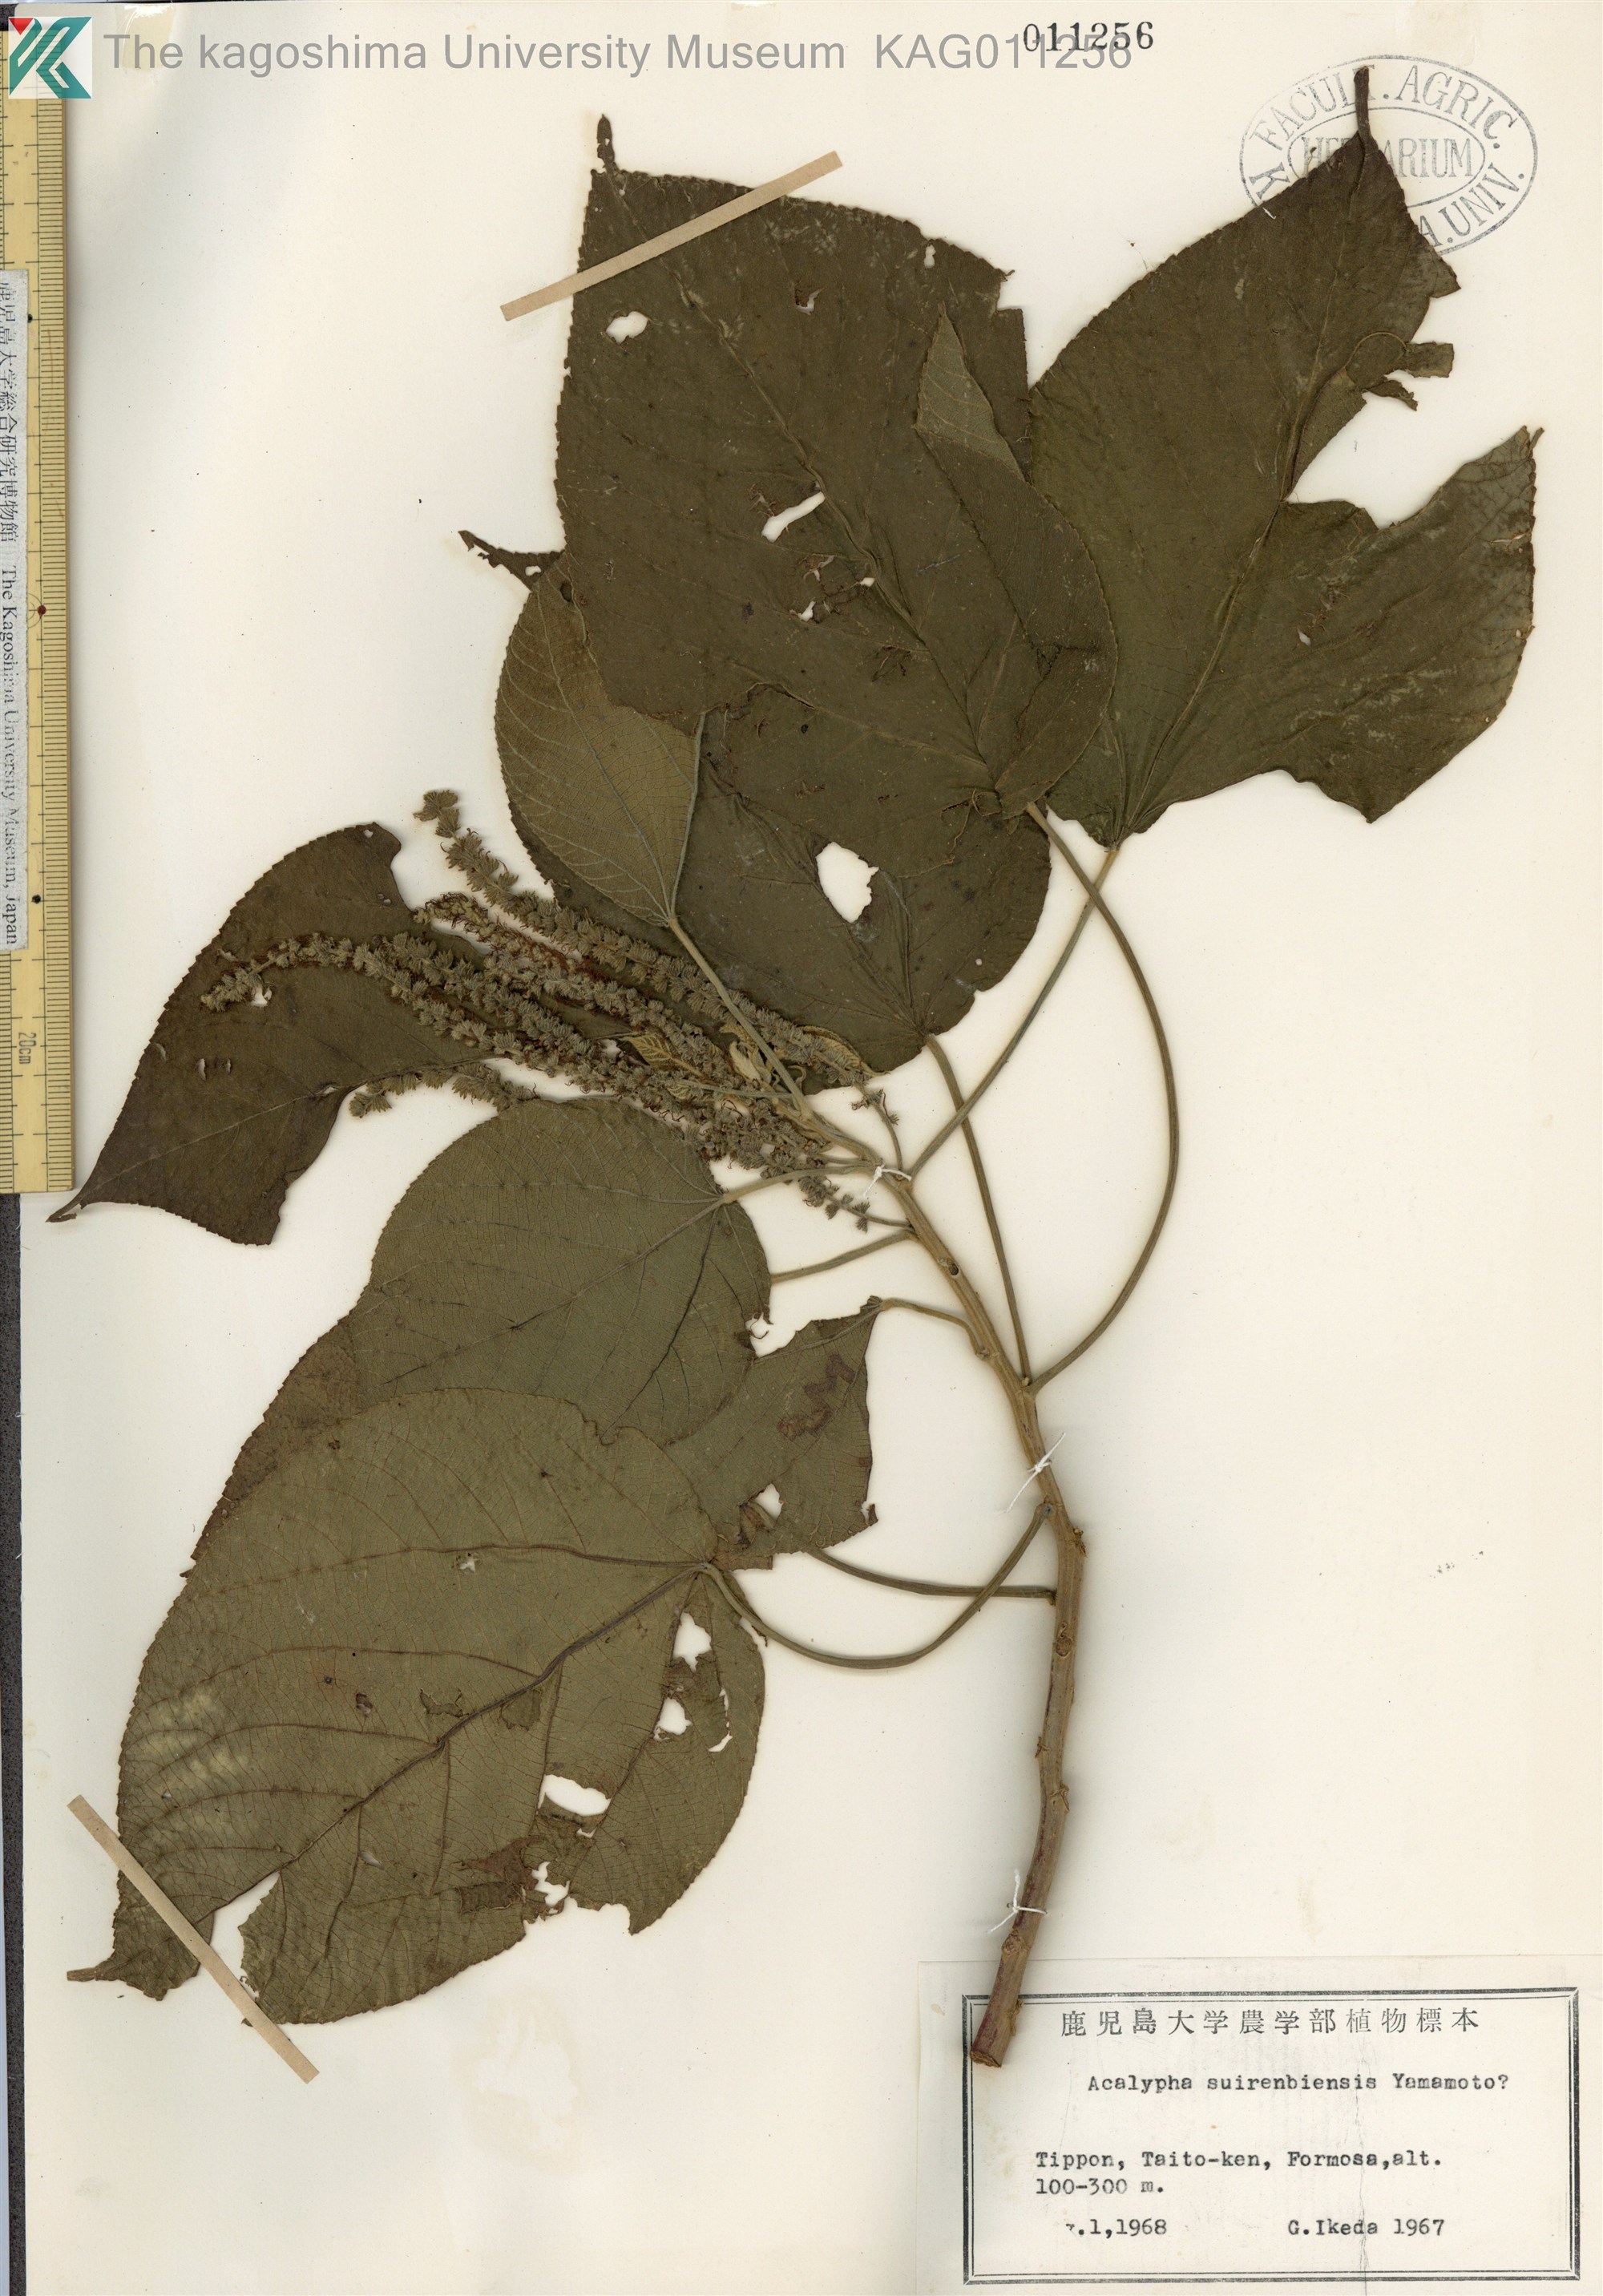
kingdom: Plantae
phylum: Tracheophyta
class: Magnoliopsida
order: Malpighiales
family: Euphorbiaceae
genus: Acalypha
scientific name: Acalypha cardiophylla
